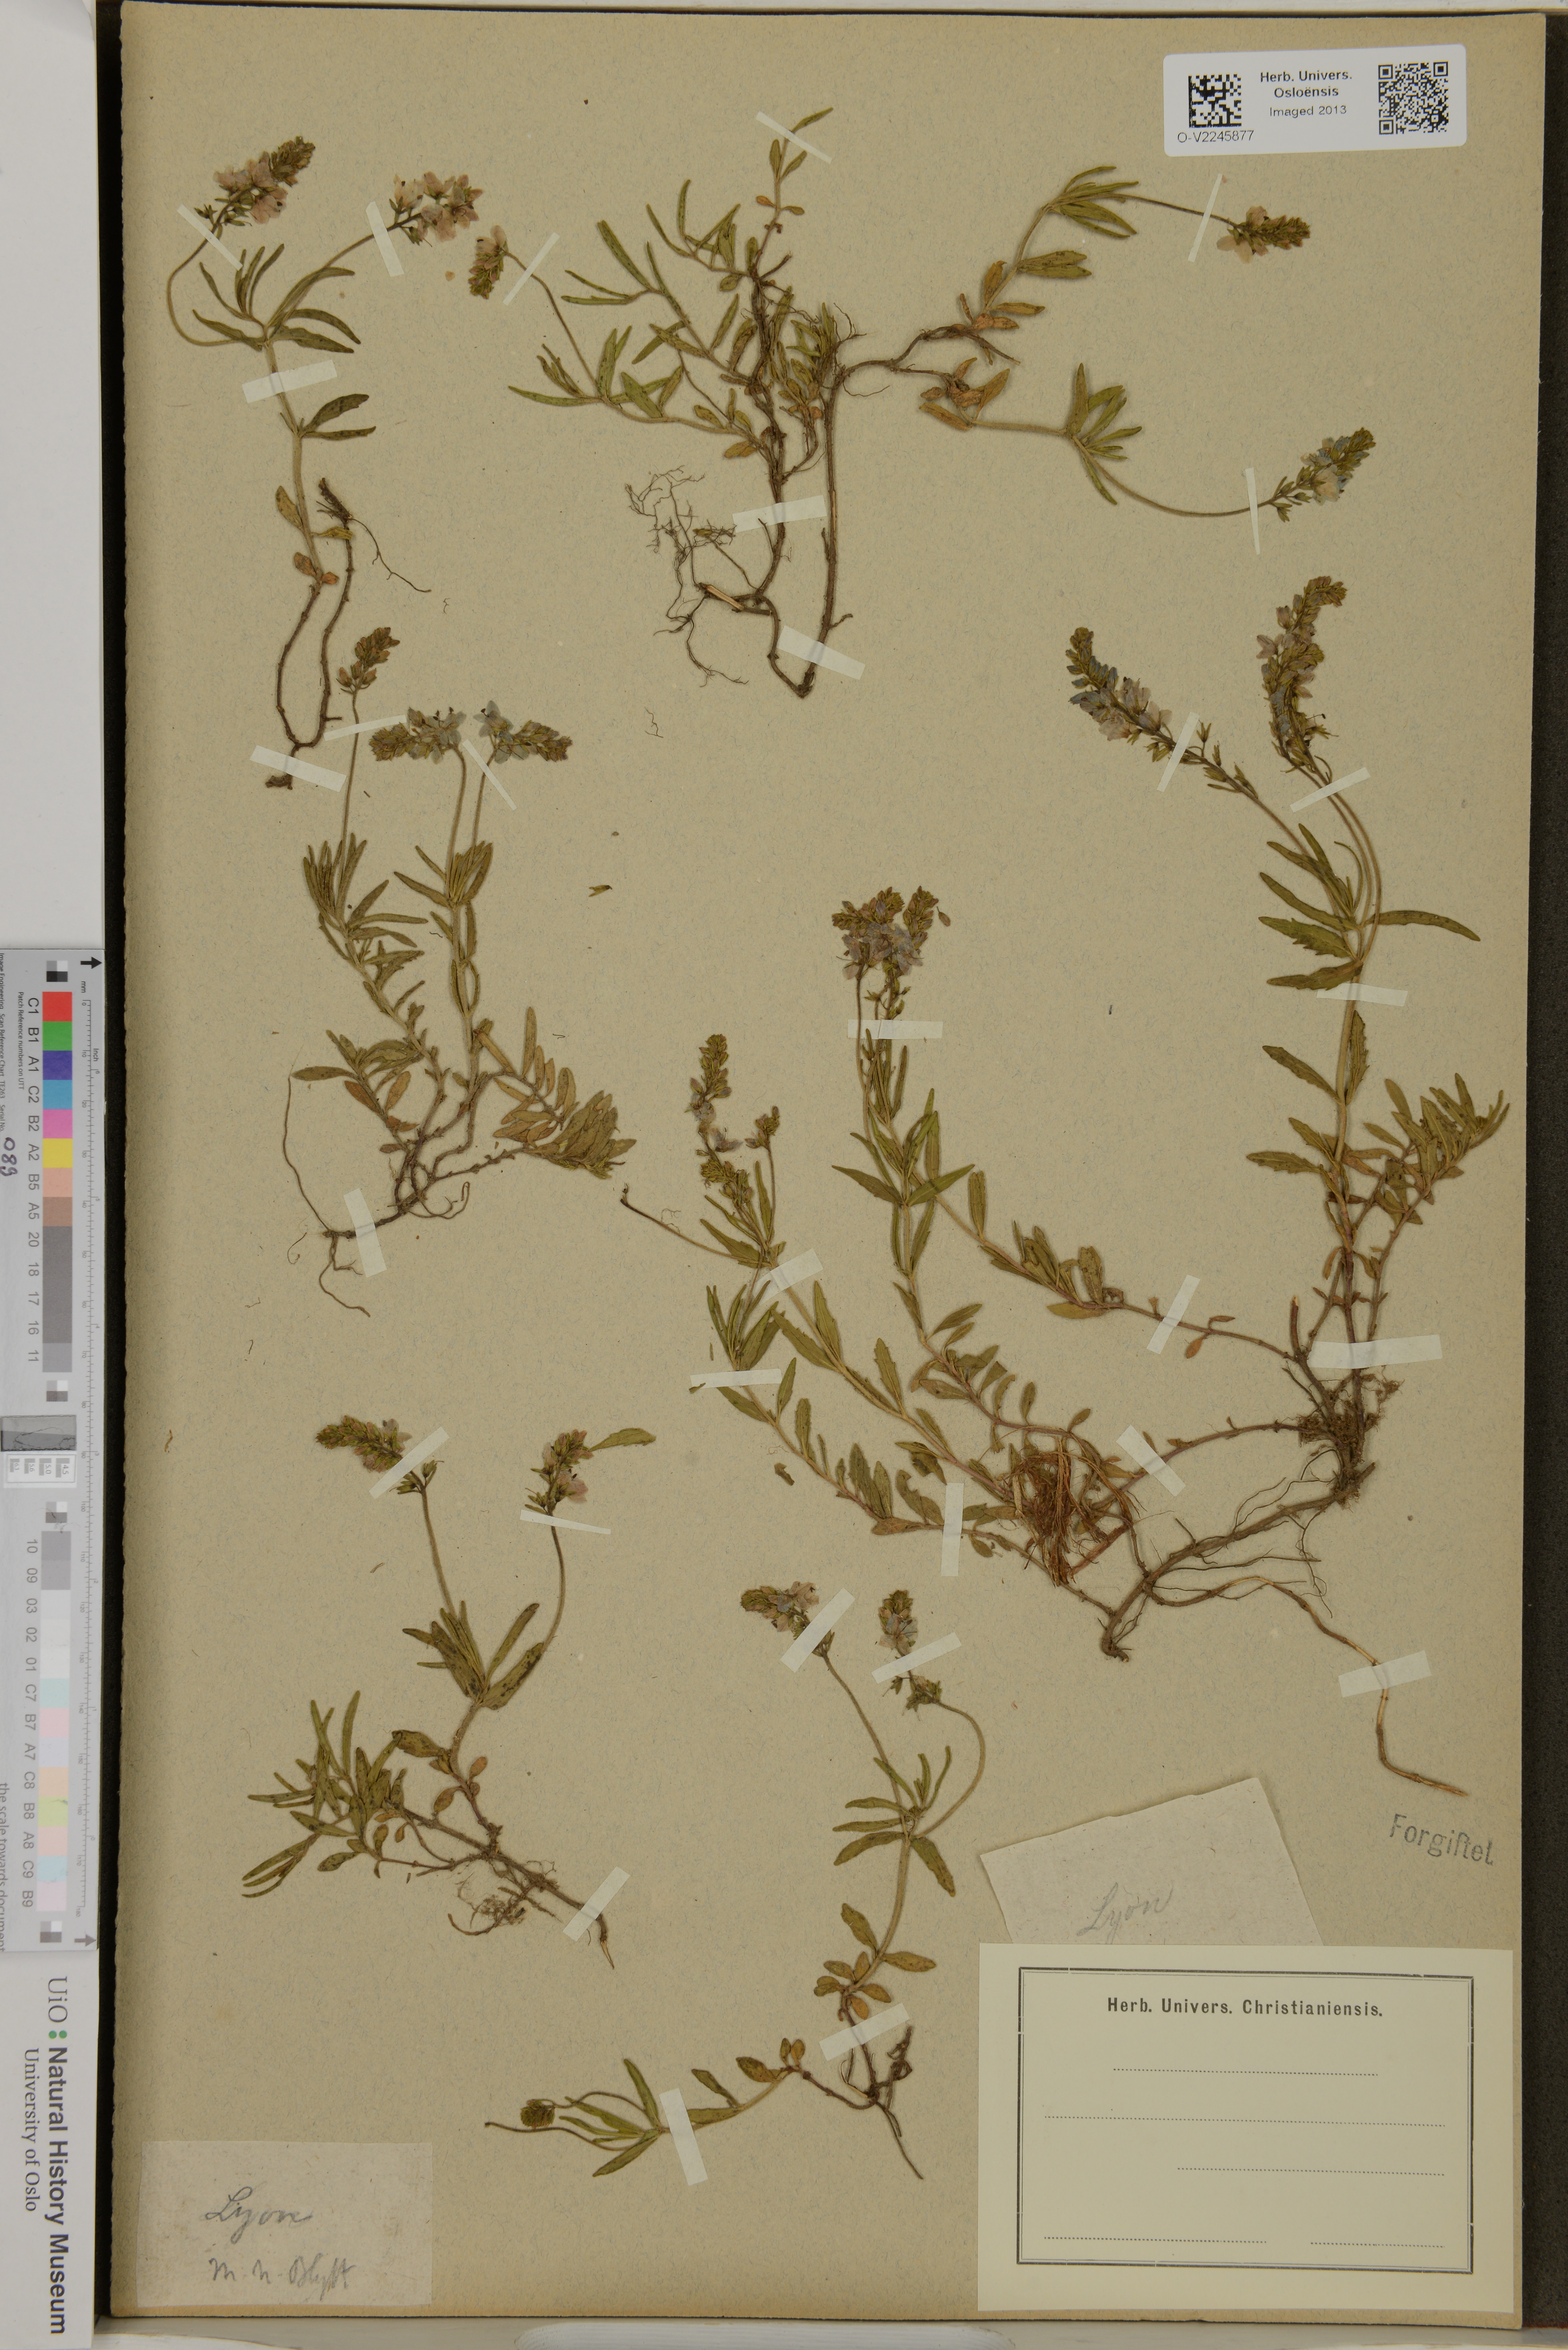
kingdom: Plantae
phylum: Tracheophyta
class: Magnoliopsida
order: Lamiales
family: Plantaginaceae
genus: Veronica
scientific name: Veronica
